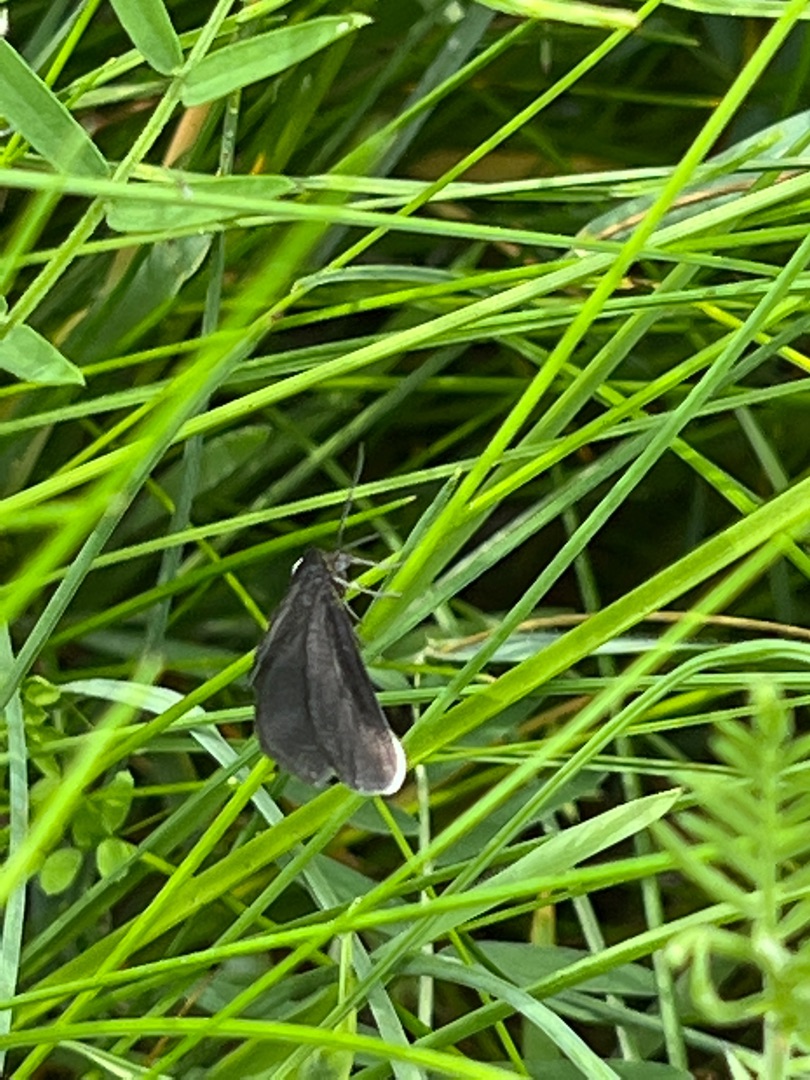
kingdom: Animalia
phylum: Arthropoda
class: Insecta
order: Lepidoptera
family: Geometridae
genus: Odezia
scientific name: Odezia atrata
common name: Sort måler
